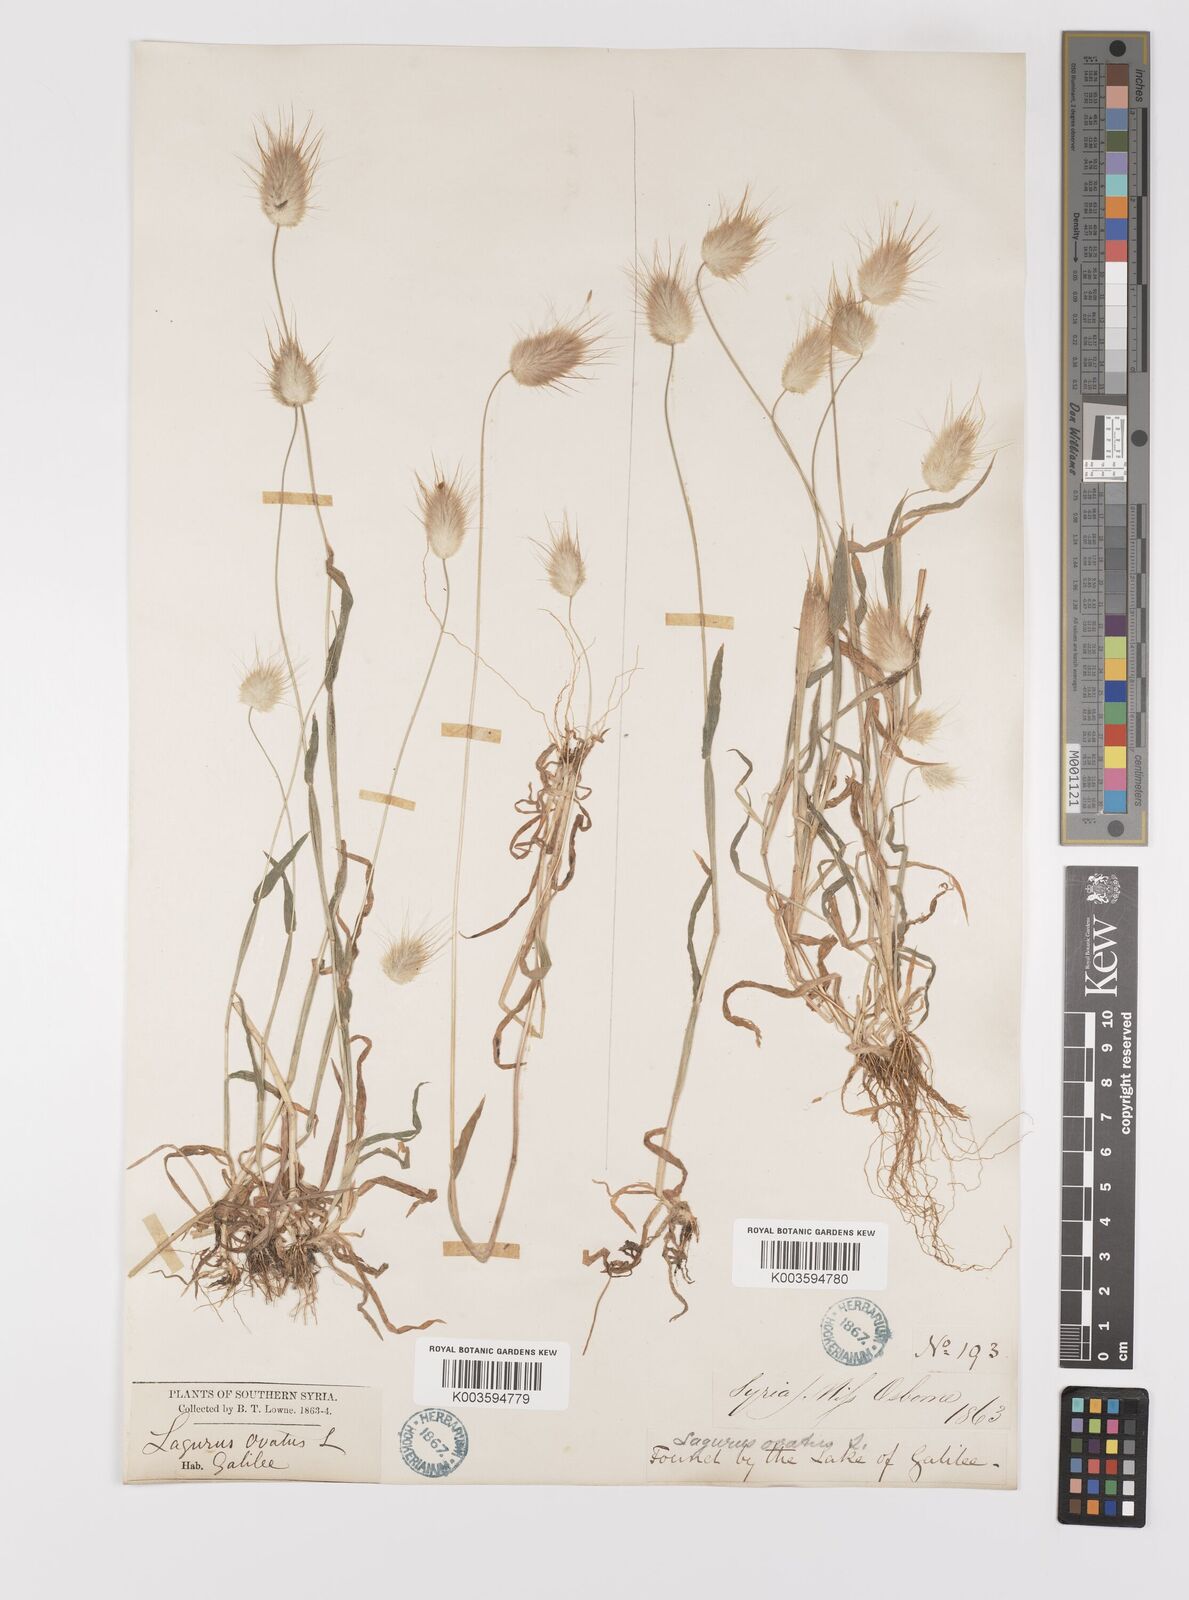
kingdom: Plantae
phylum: Tracheophyta
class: Liliopsida
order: Poales
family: Poaceae
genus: Lagurus
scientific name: Lagurus ovatus
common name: Hare's-tail
